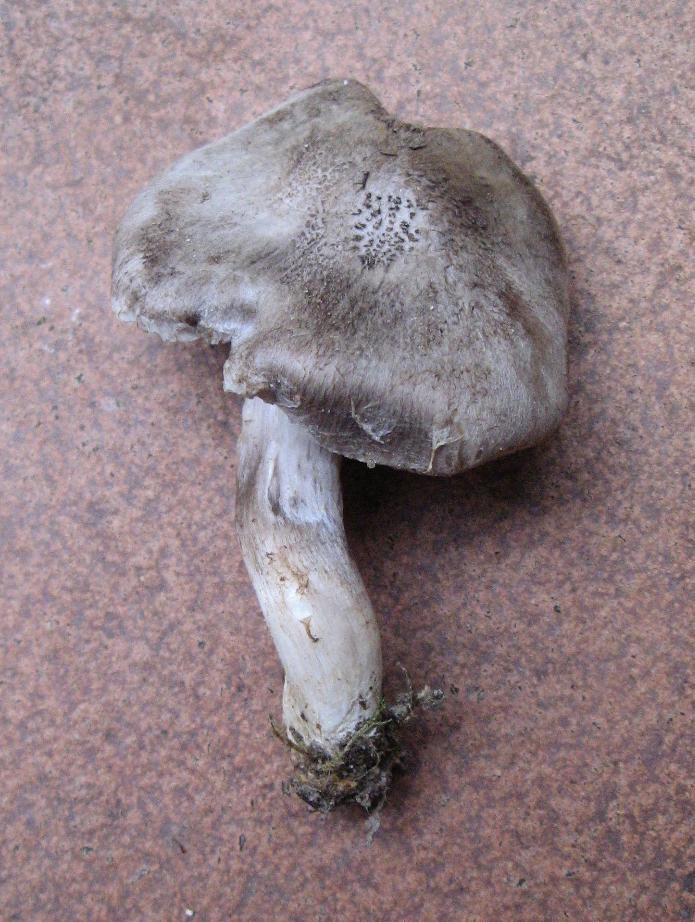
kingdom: Fungi
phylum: Basidiomycota
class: Agaricomycetes
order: Agaricales
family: Tricholomataceae
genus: Tricholoma
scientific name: Tricholoma scalpturatum
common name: gulplettet ridderhat
